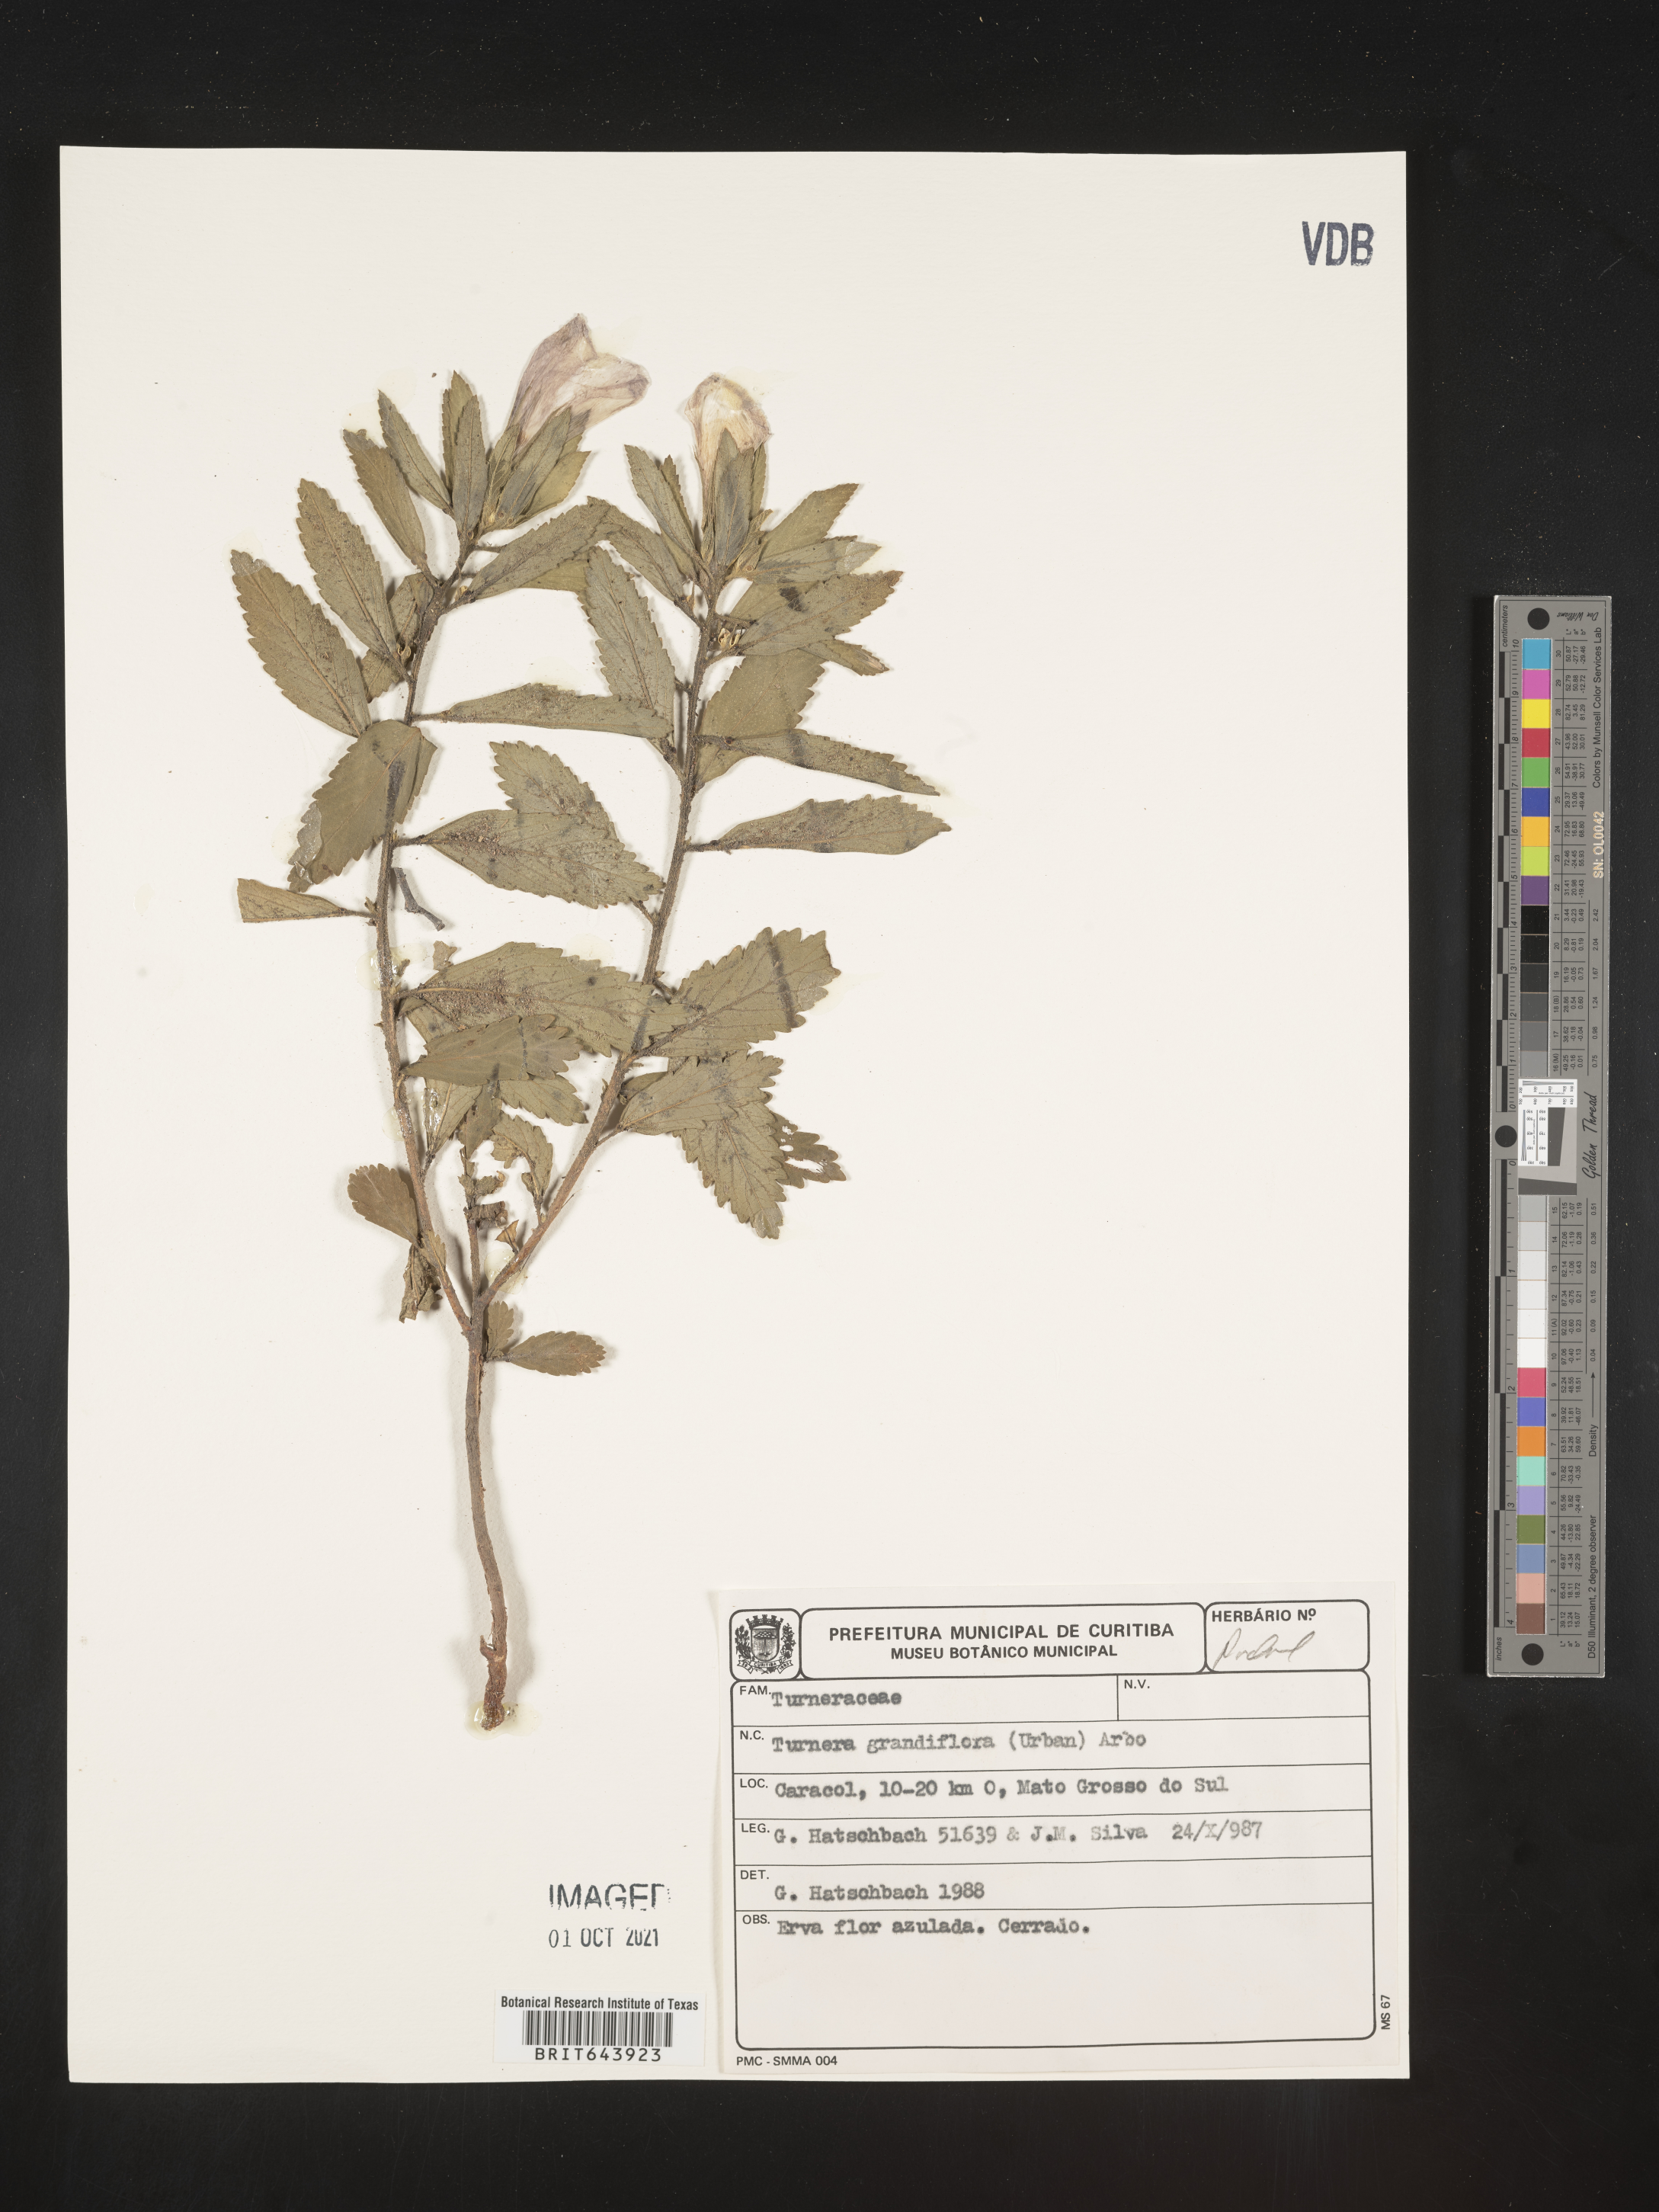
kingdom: Plantae
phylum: Tracheophyta
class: Magnoliopsida
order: Malpighiales
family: Turneraceae
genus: Turnera
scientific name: Turnera
